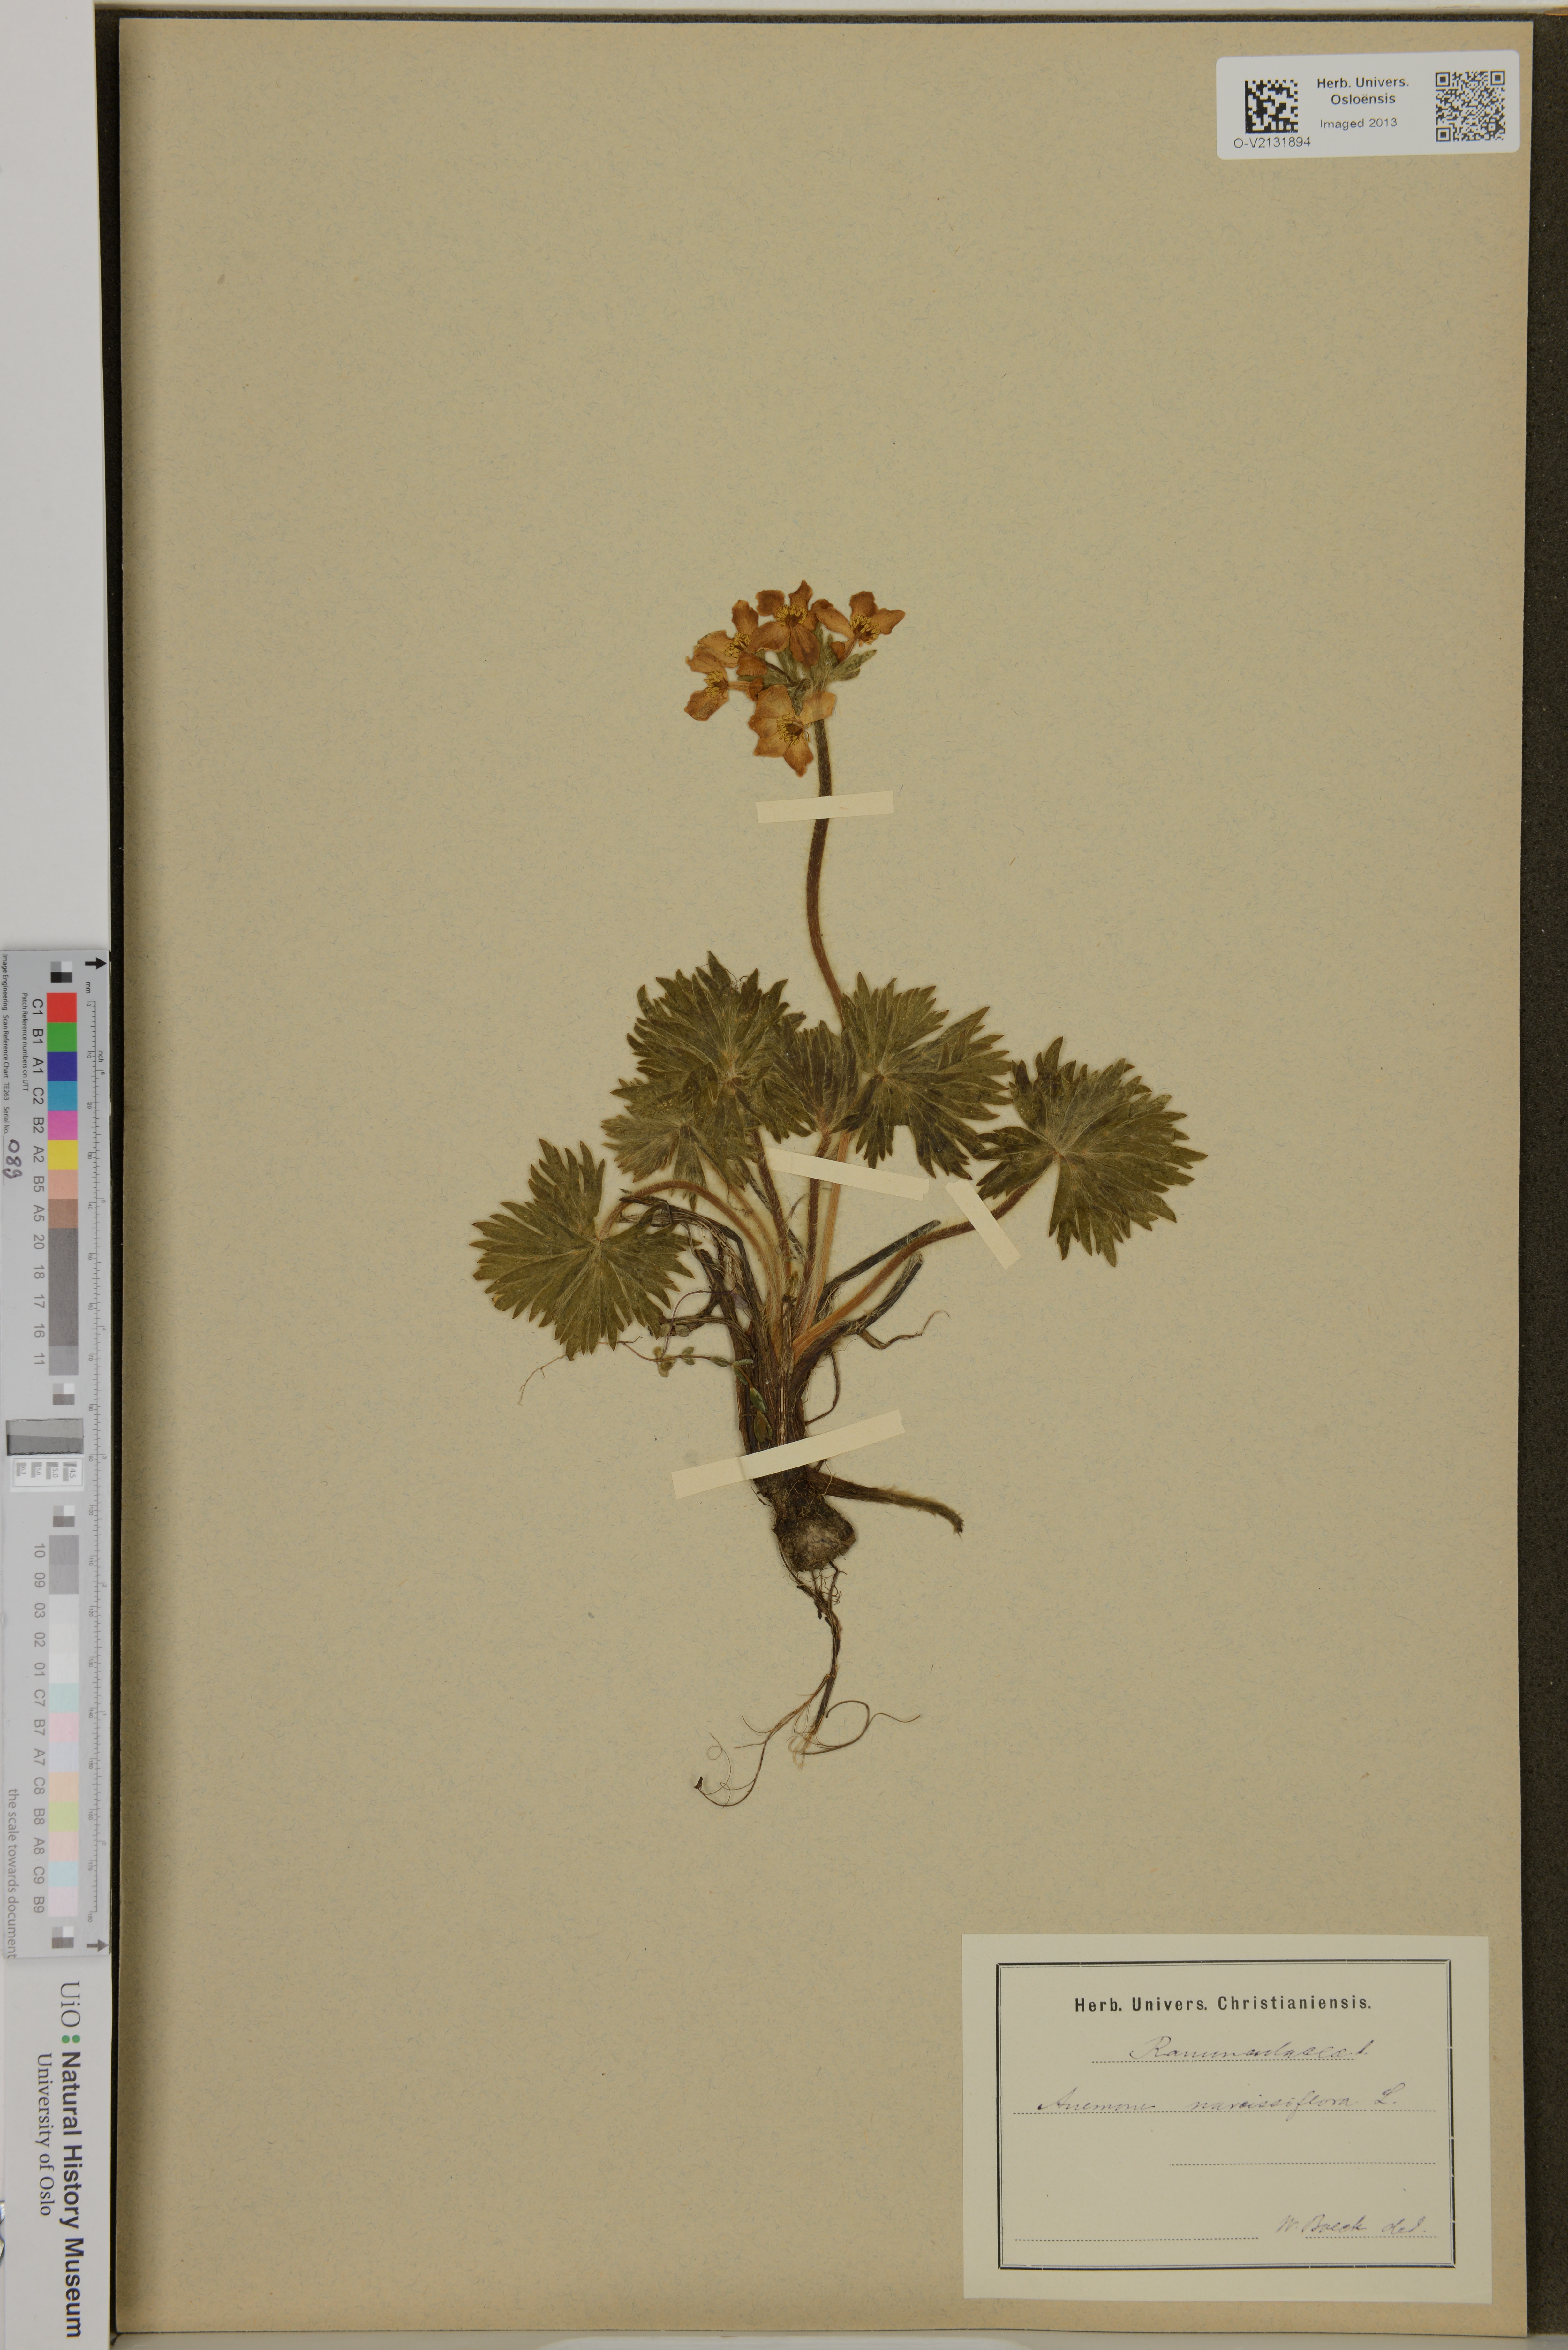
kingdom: Plantae
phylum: Tracheophyta
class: Magnoliopsida
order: Ranunculales
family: Ranunculaceae
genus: Anemone
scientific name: Anemone multifida
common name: Bird's-foot anemone
